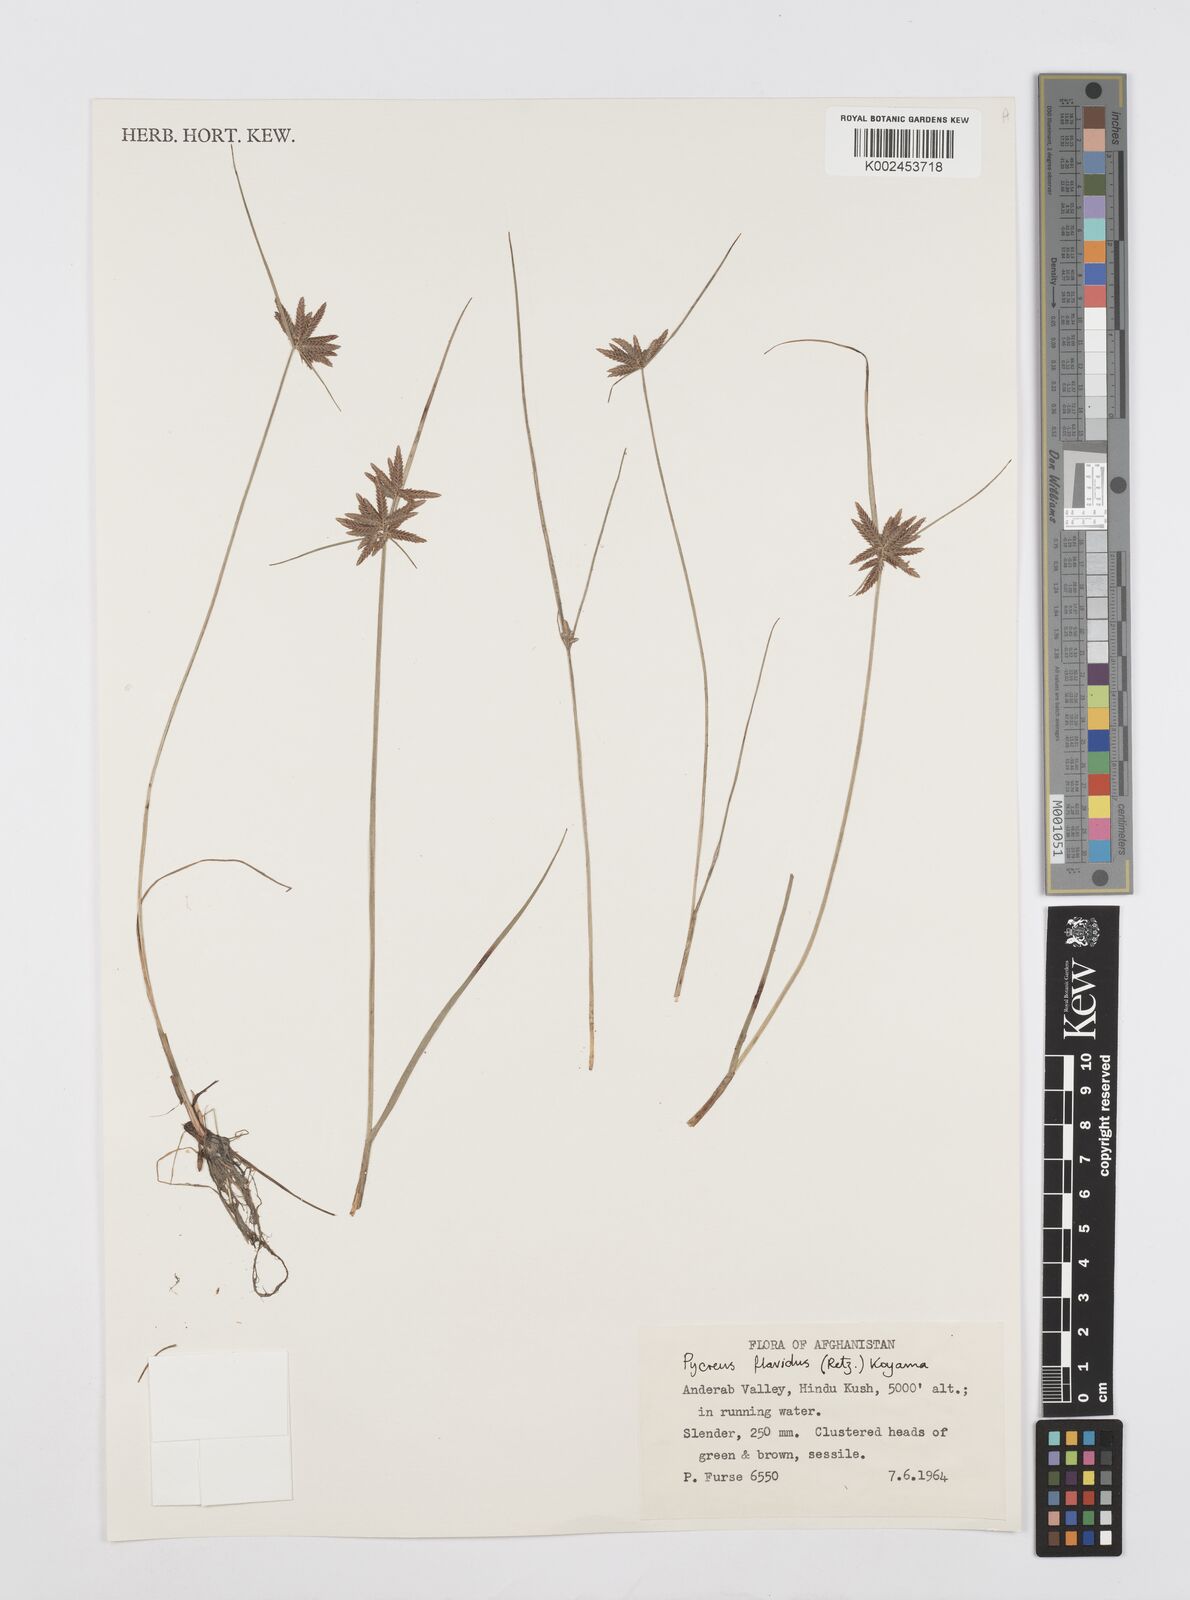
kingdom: Plantae
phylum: Tracheophyta
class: Liliopsida
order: Poales
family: Cyperaceae
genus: Cyperus
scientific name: Cyperus flavidus
